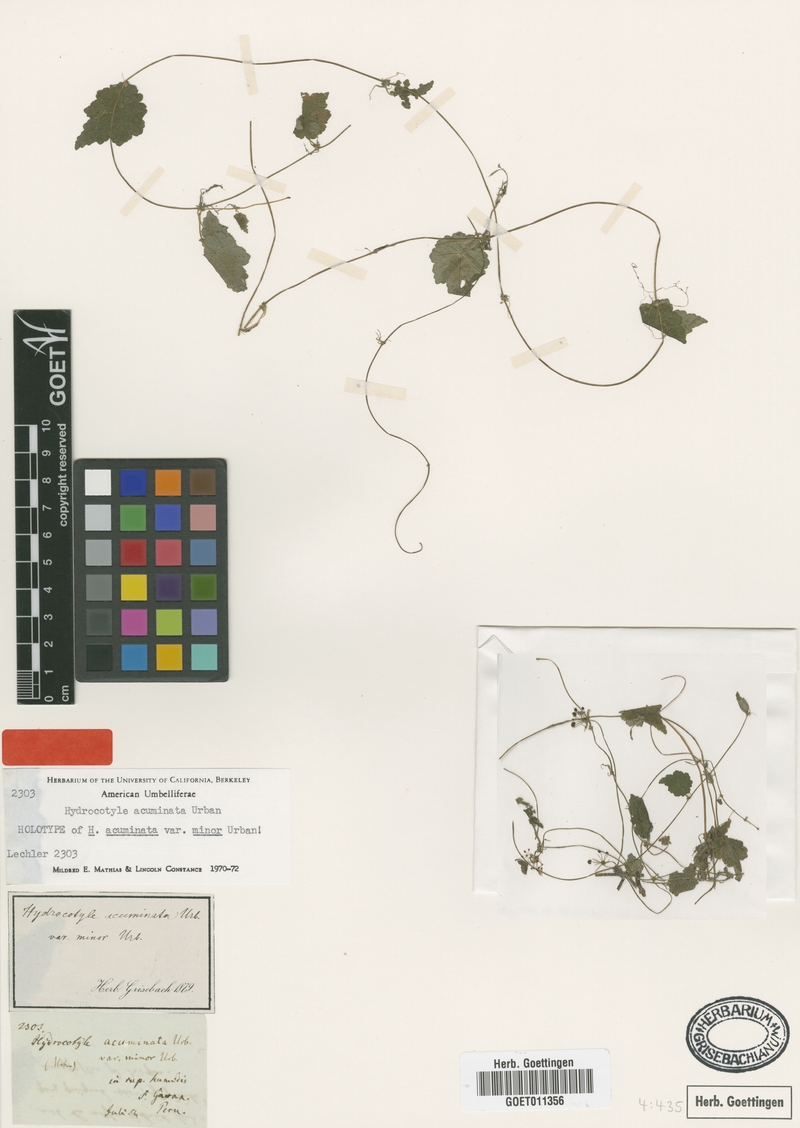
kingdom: Plantae
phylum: Tracheophyta
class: Magnoliopsida
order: Apiales
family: Araliaceae
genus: Hydrocotyle
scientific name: Hydrocotyle acuminata
